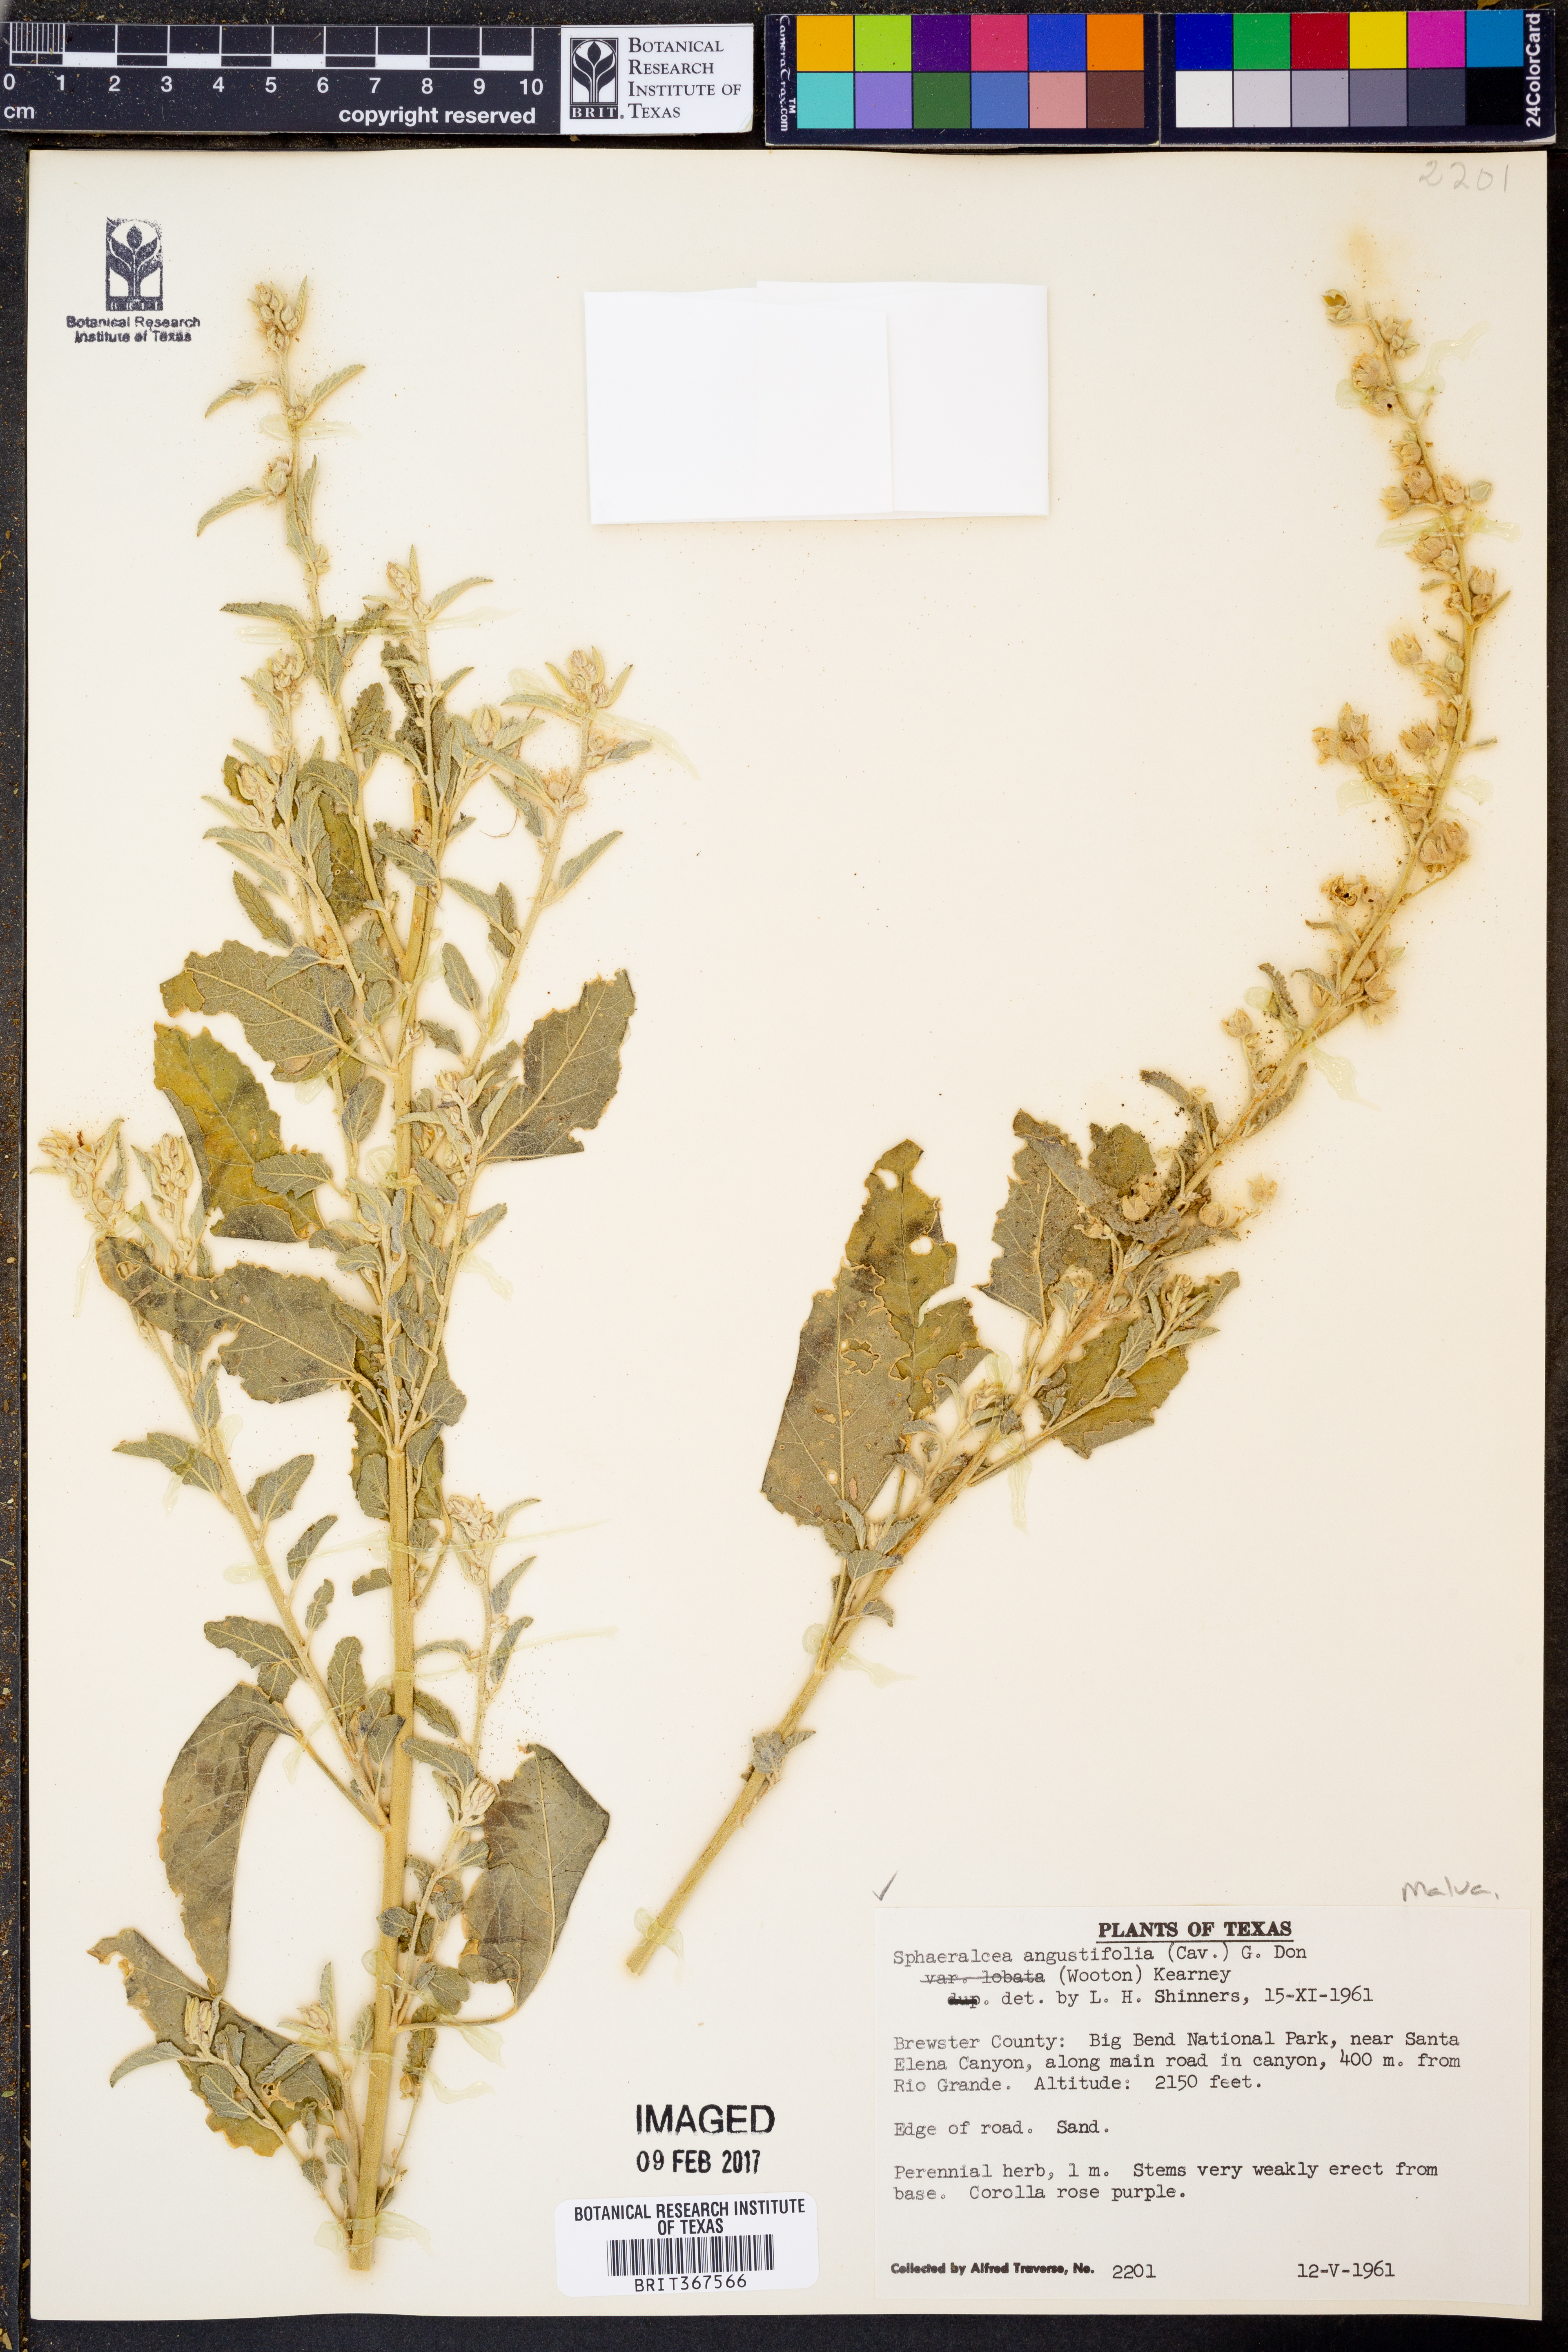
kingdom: Plantae
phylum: Tracheophyta
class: Magnoliopsida
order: Malvales
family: Malvaceae
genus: Sphaeralcea
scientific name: Sphaeralcea angustifolia
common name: Copper globe-mallow
